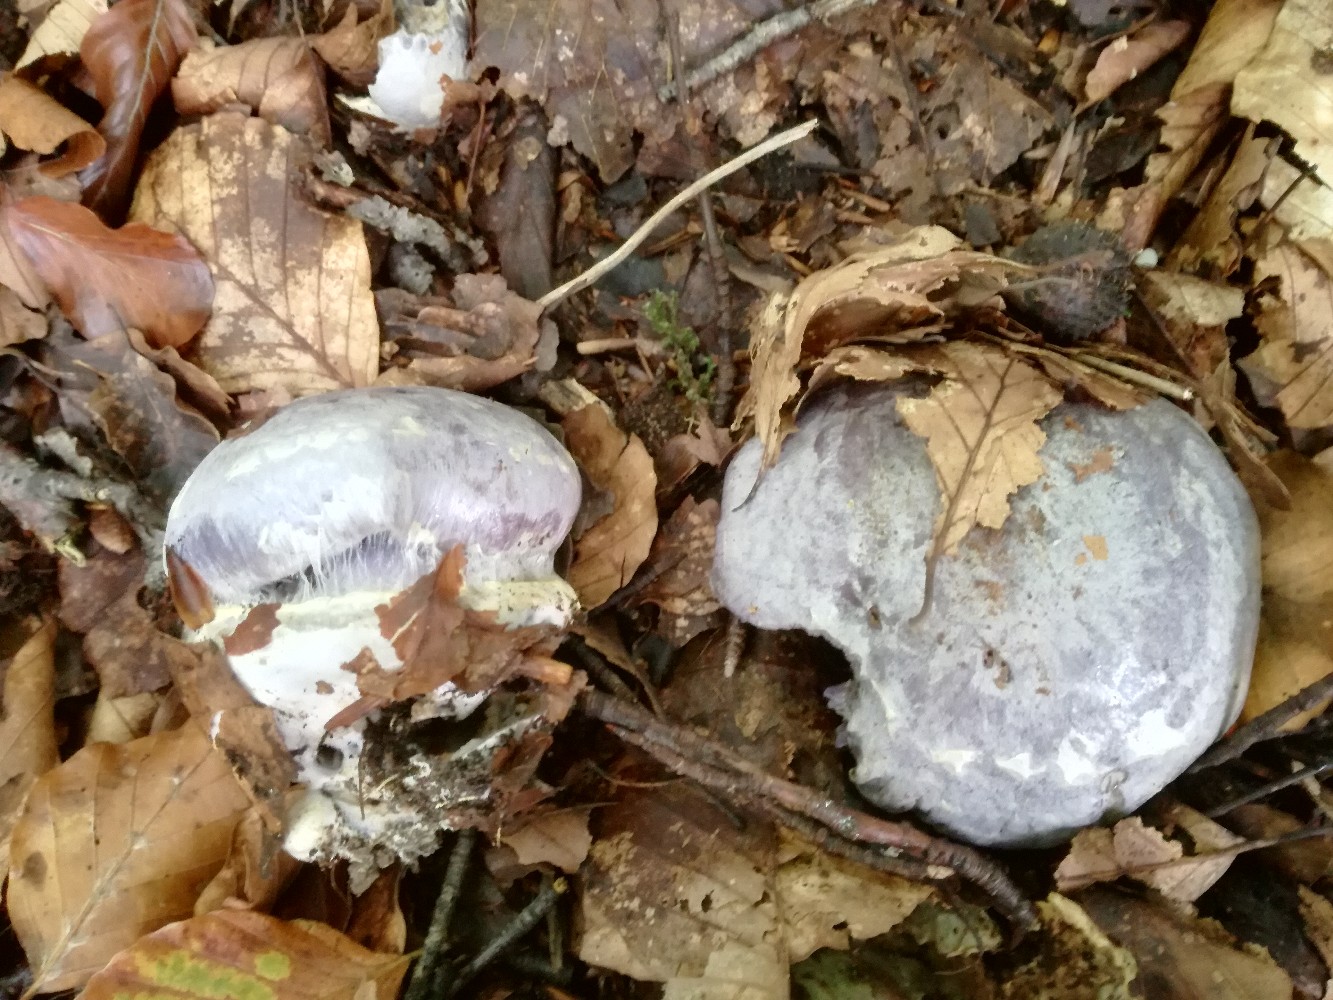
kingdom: Fungi
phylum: Basidiomycota
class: Agaricomycetes
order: Agaricales
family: Cortinariaceae
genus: Cortinarius
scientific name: Cortinarius caerulescens
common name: blåkødet slørhat
